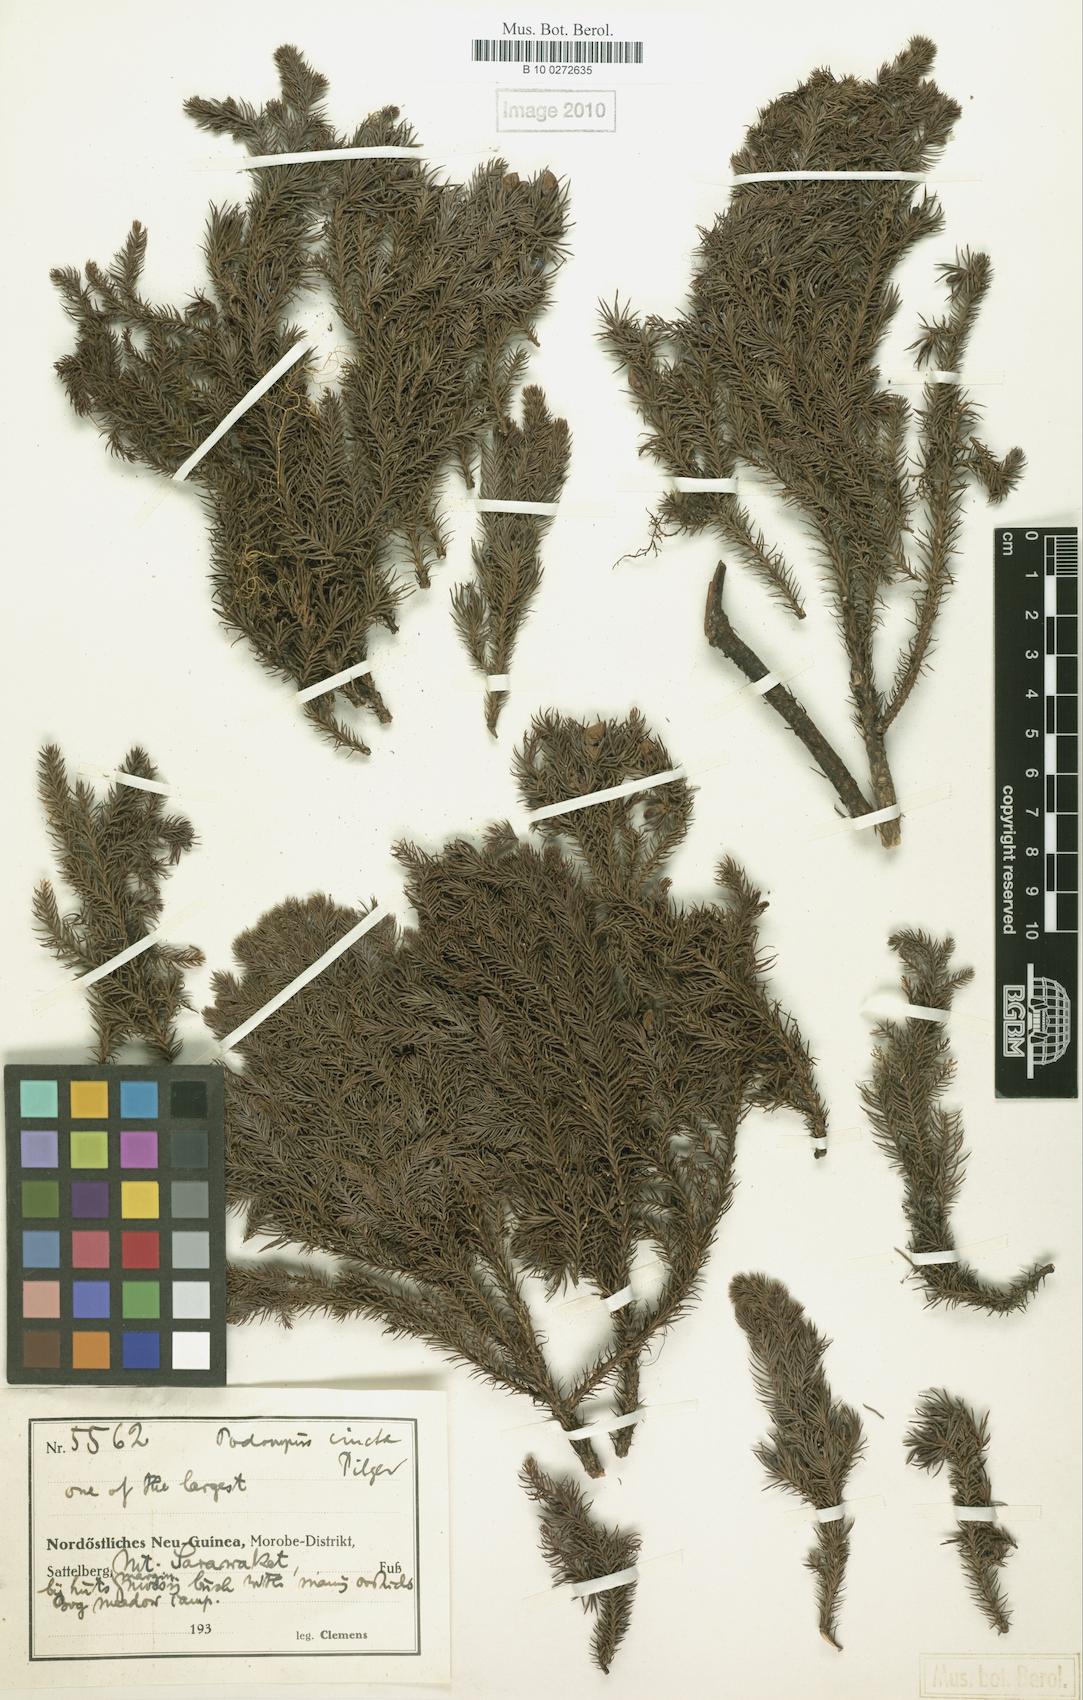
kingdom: Plantae
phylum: Tracheophyta
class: Pinopsida
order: Pinales
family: Podocarpaceae
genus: Dacrycarpus
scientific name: Dacrycarpus cinctus
